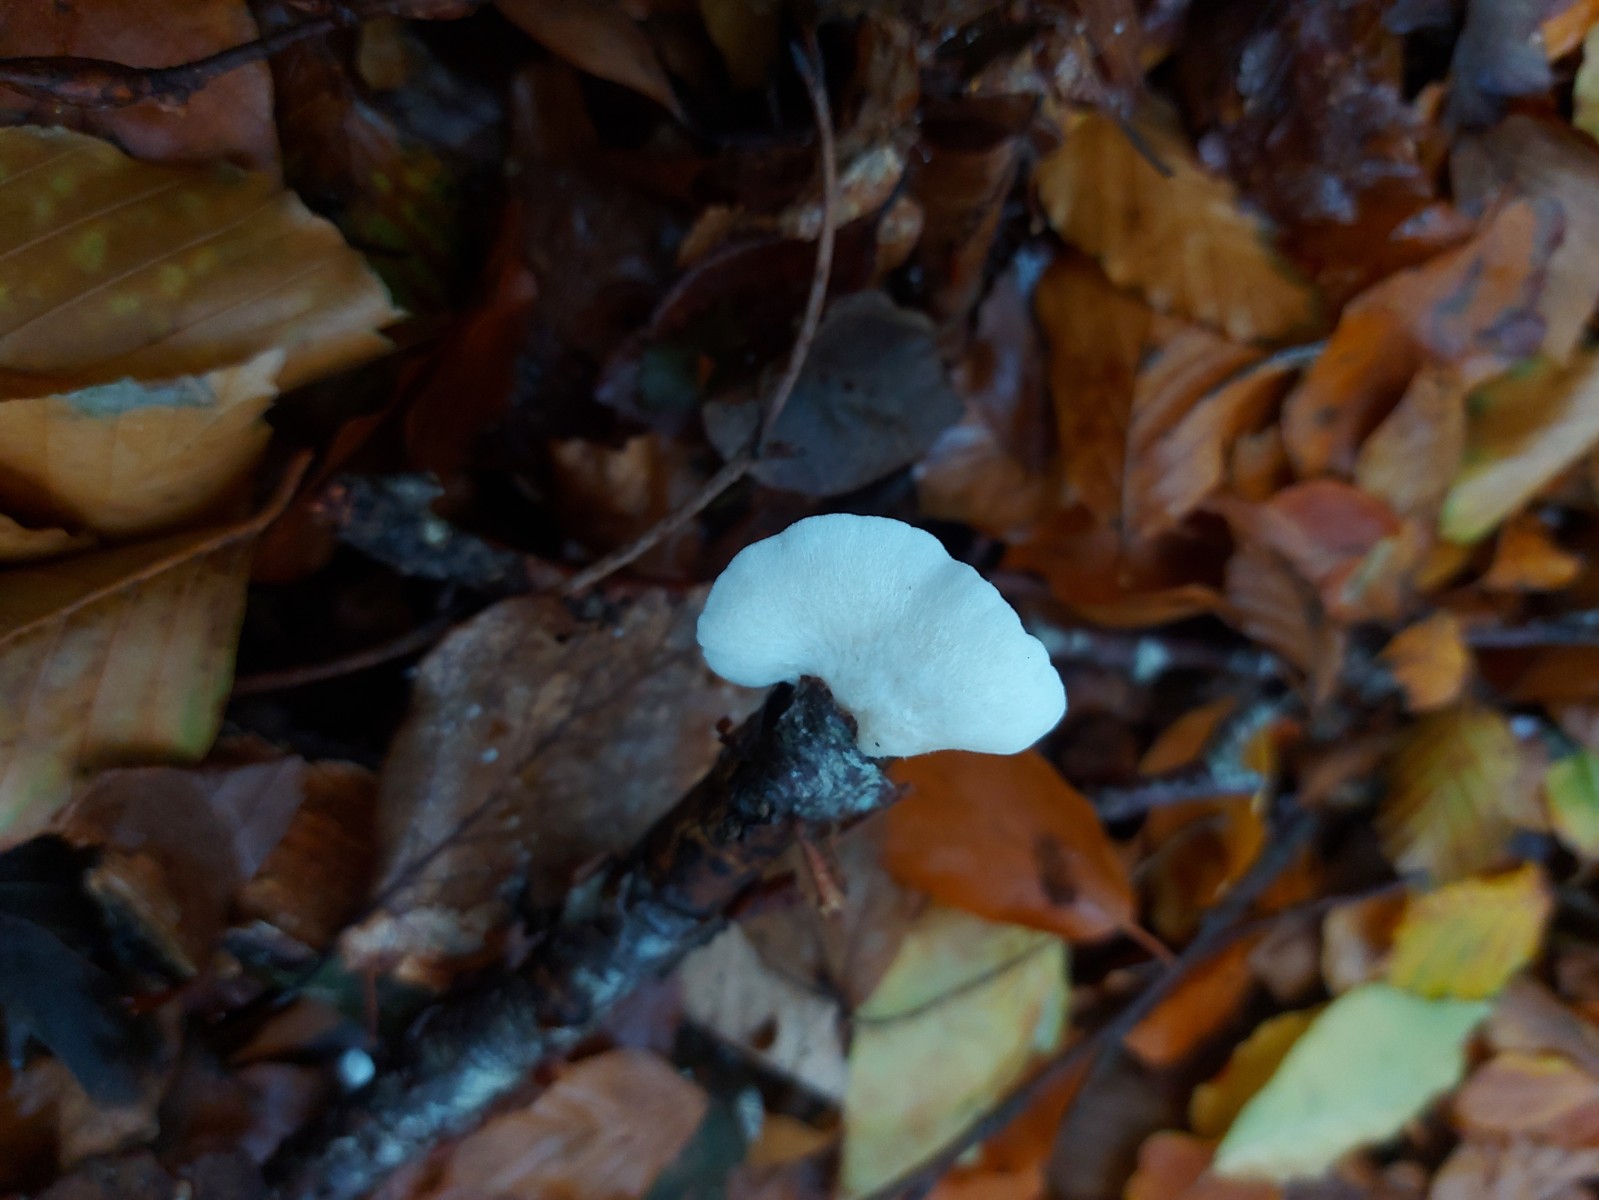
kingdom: Fungi
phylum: Basidiomycota
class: Agaricomycetes
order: Agaricales
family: Crepidotaceae
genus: Crepidotus
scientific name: Crepidotus
